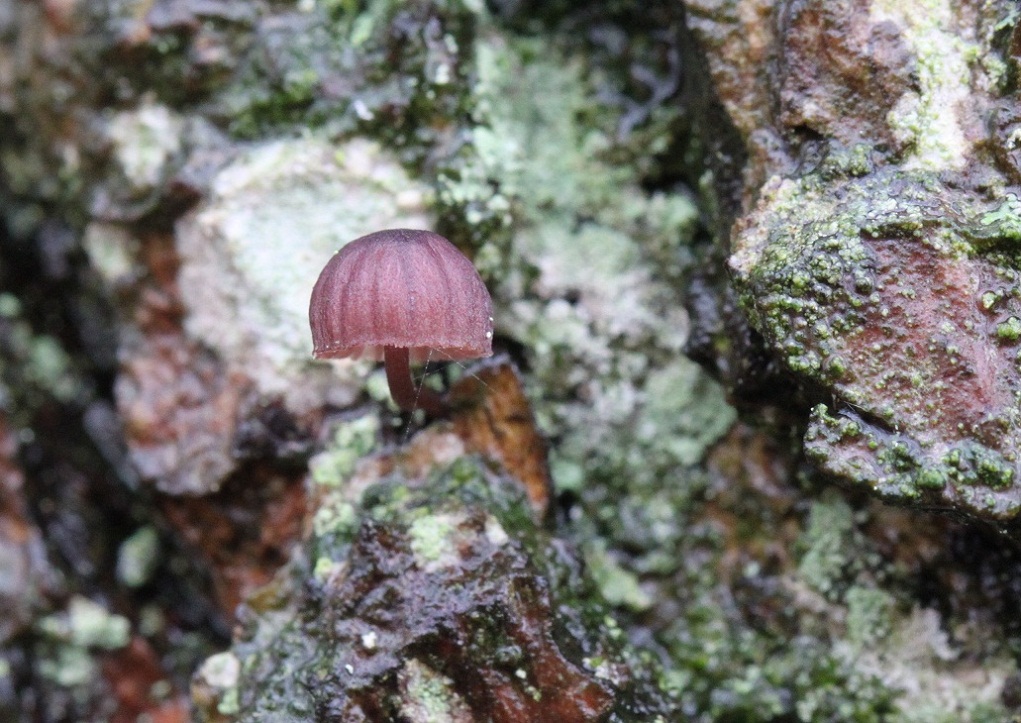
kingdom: Fungi
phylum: Basidiomycota
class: Agaricomycetes
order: Agaricales
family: Mycenaceae
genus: Mycena
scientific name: Mycena meliigena
